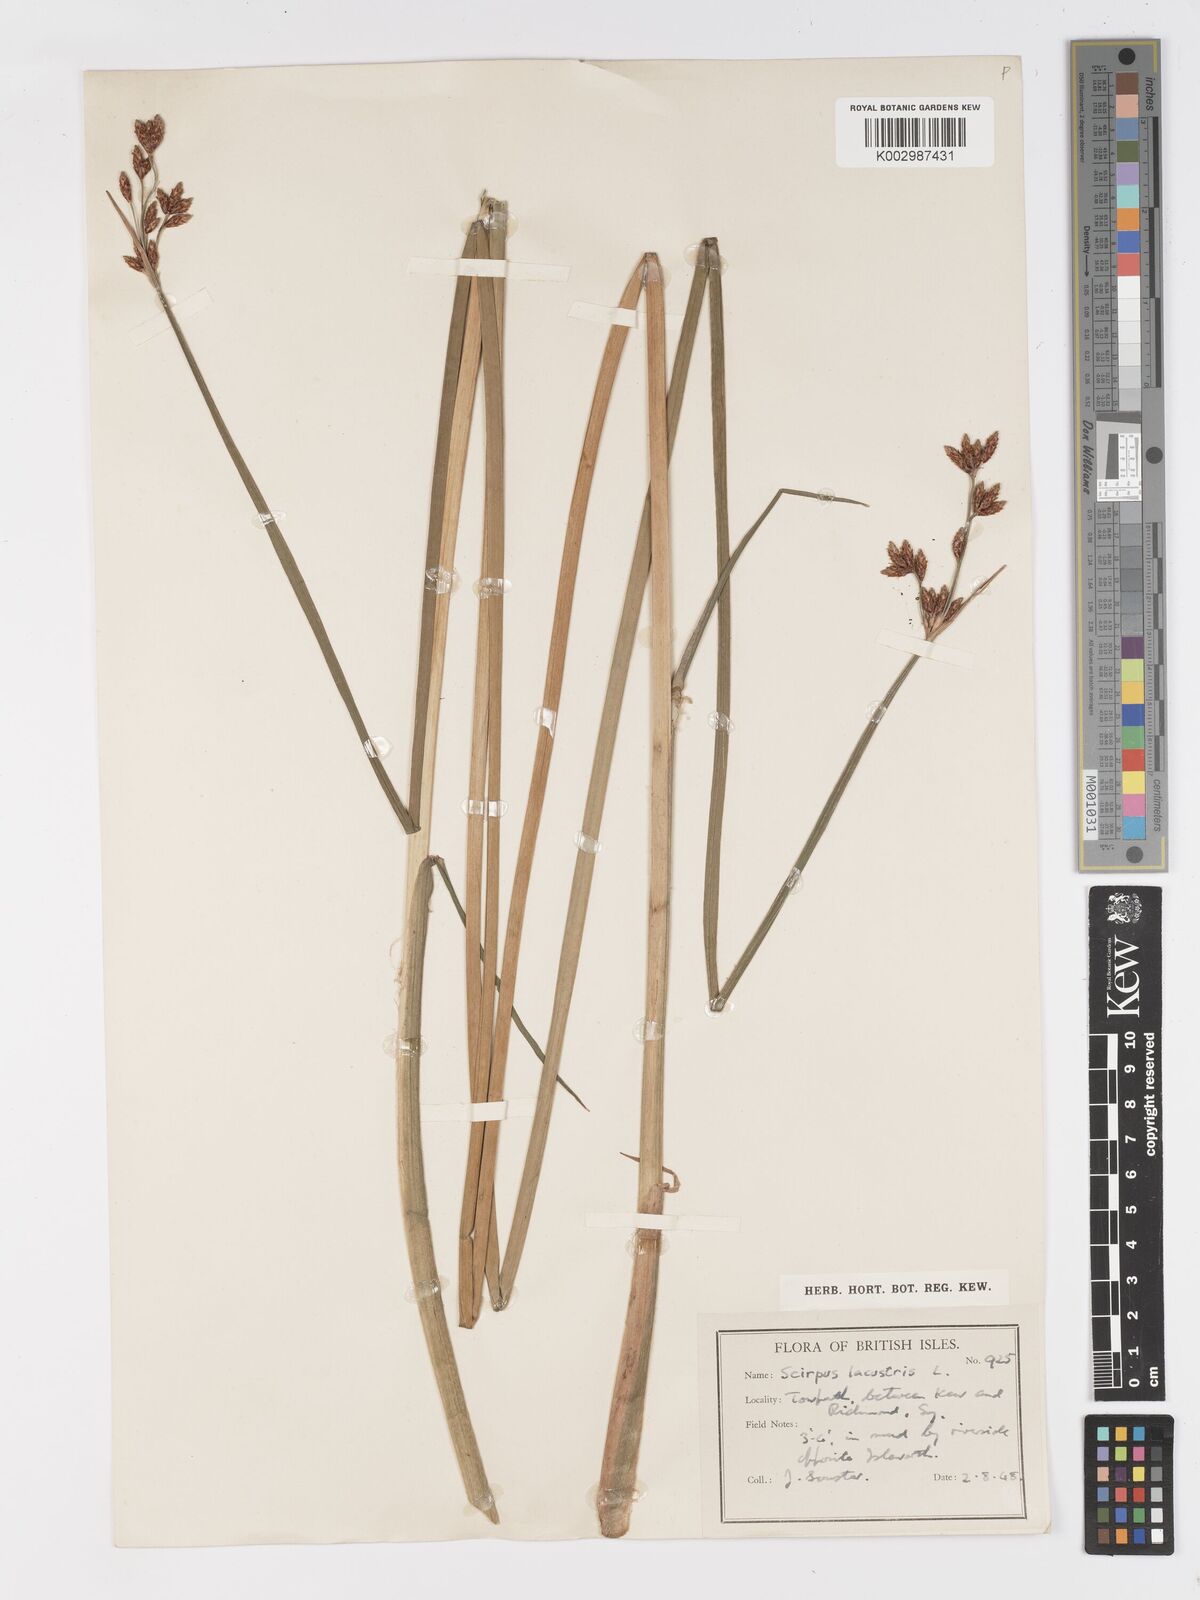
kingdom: Plantae
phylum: Tracheophyta
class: Liliopsida
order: Poales
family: Cyperaceae
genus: Schoenoplectus
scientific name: Schoenoplectus lacustris
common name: Common club-rush
